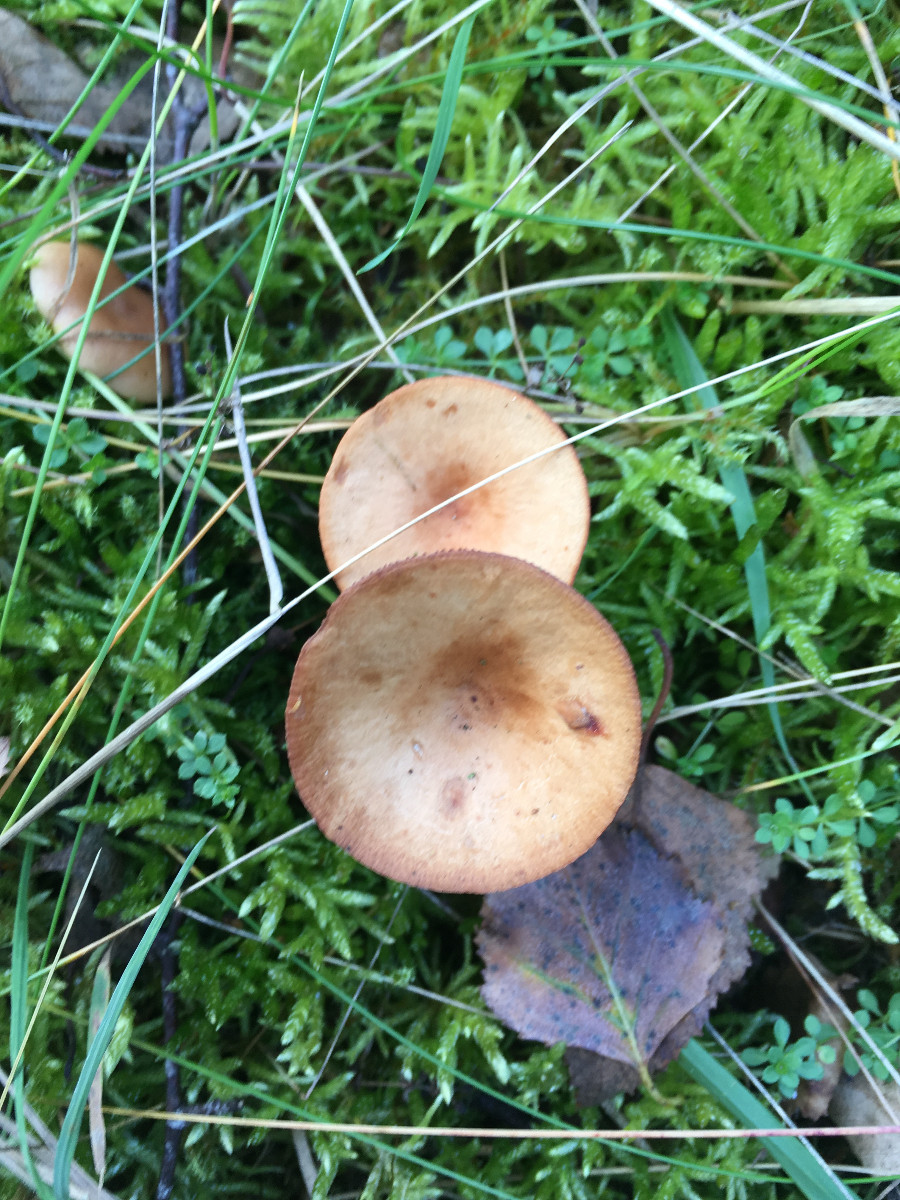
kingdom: Fungi
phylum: Basidiomycota
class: Agaricomycetes
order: Russulales
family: Russulaceae
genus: Lactarius
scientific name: Lactarius tabidus
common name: rynket mælkehat
